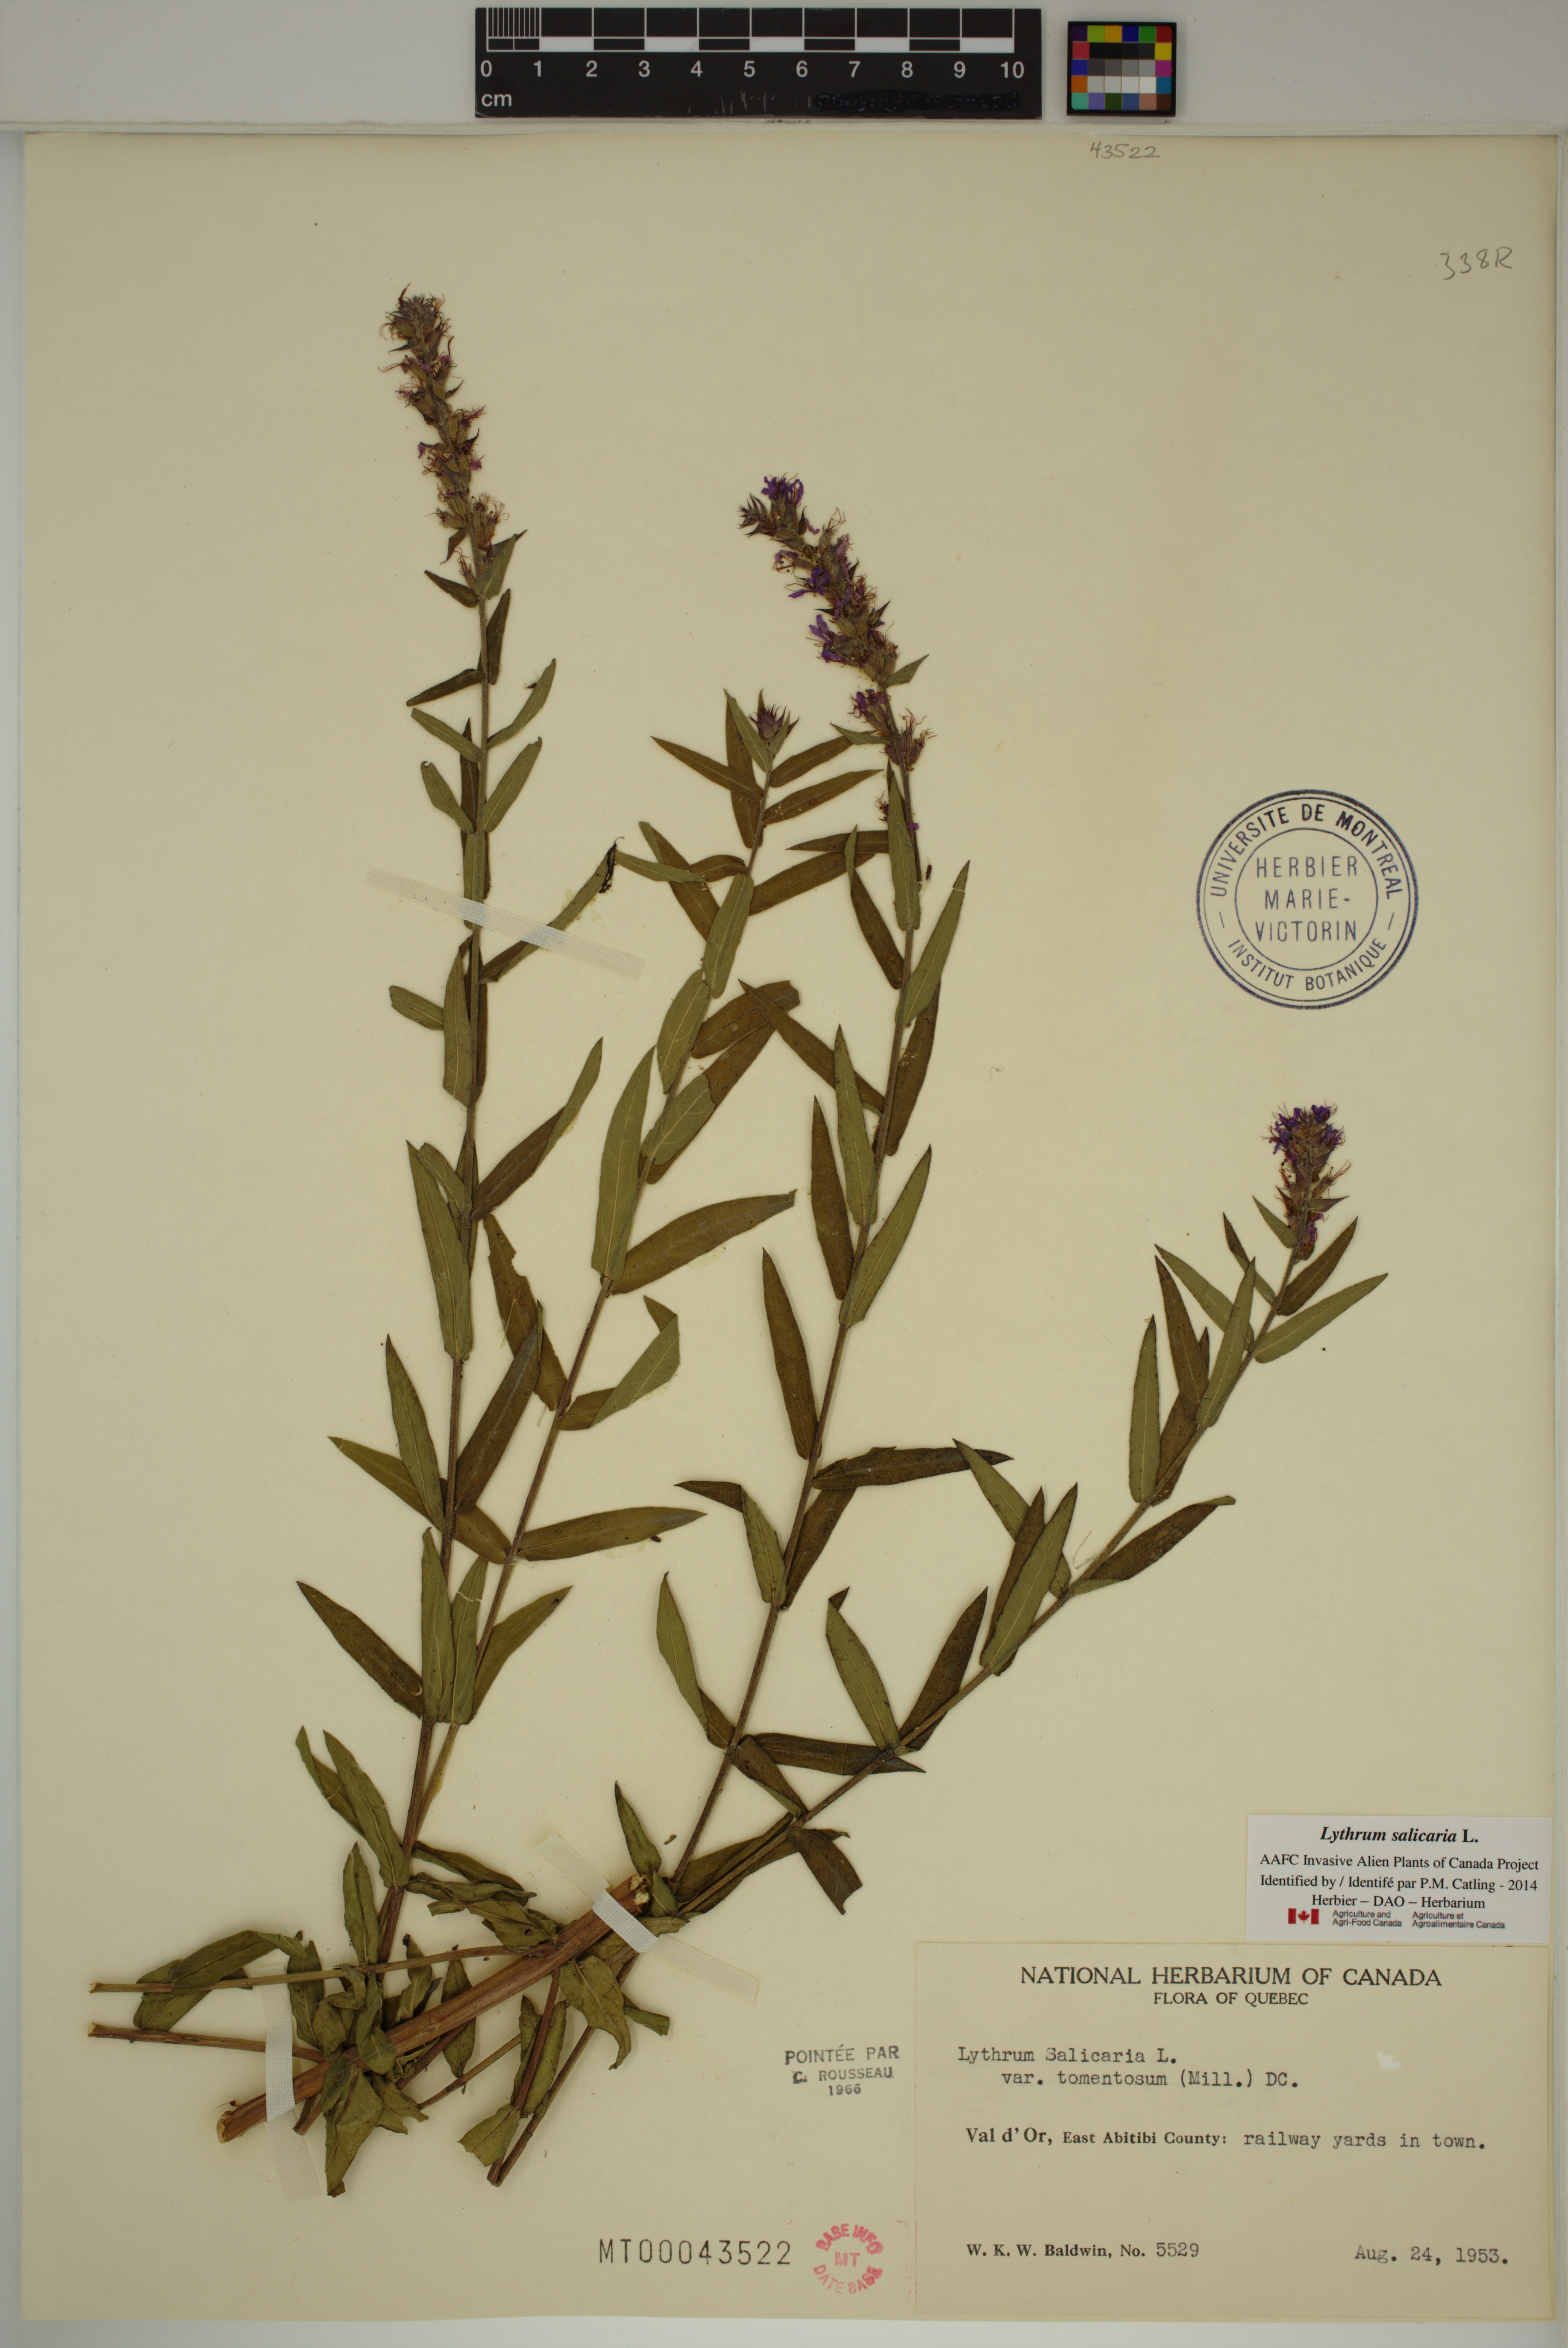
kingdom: Plantae
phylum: Tracheophyta
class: Magnoliopsida
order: Myrtales
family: Lythraceae
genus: Lythrum
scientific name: Lythrum salicaria
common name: Purple loosestrife
